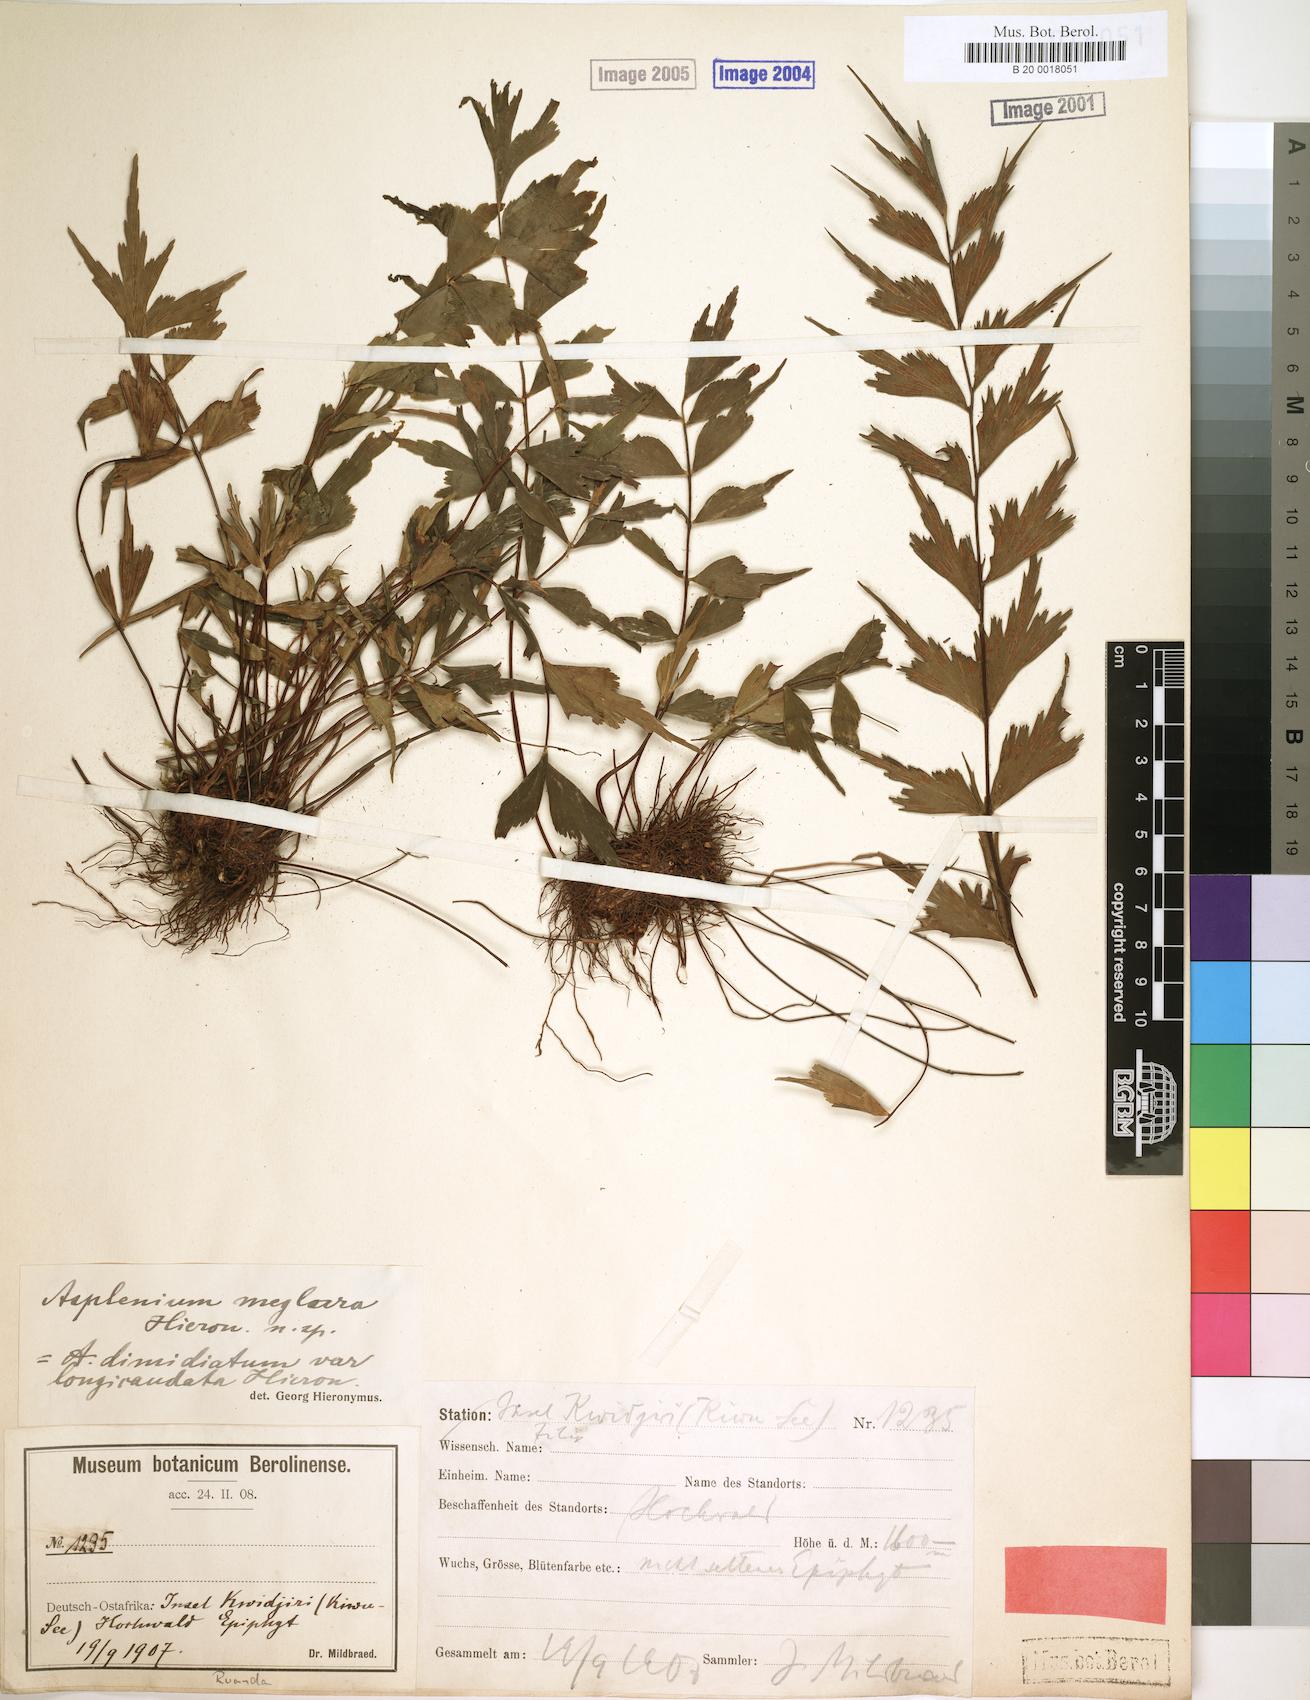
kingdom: Plantae
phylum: Tracheophyta
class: Polypodiopsida
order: Polypodiales
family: Aspleniaceae
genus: Asplenium
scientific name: Asplenium megalura
